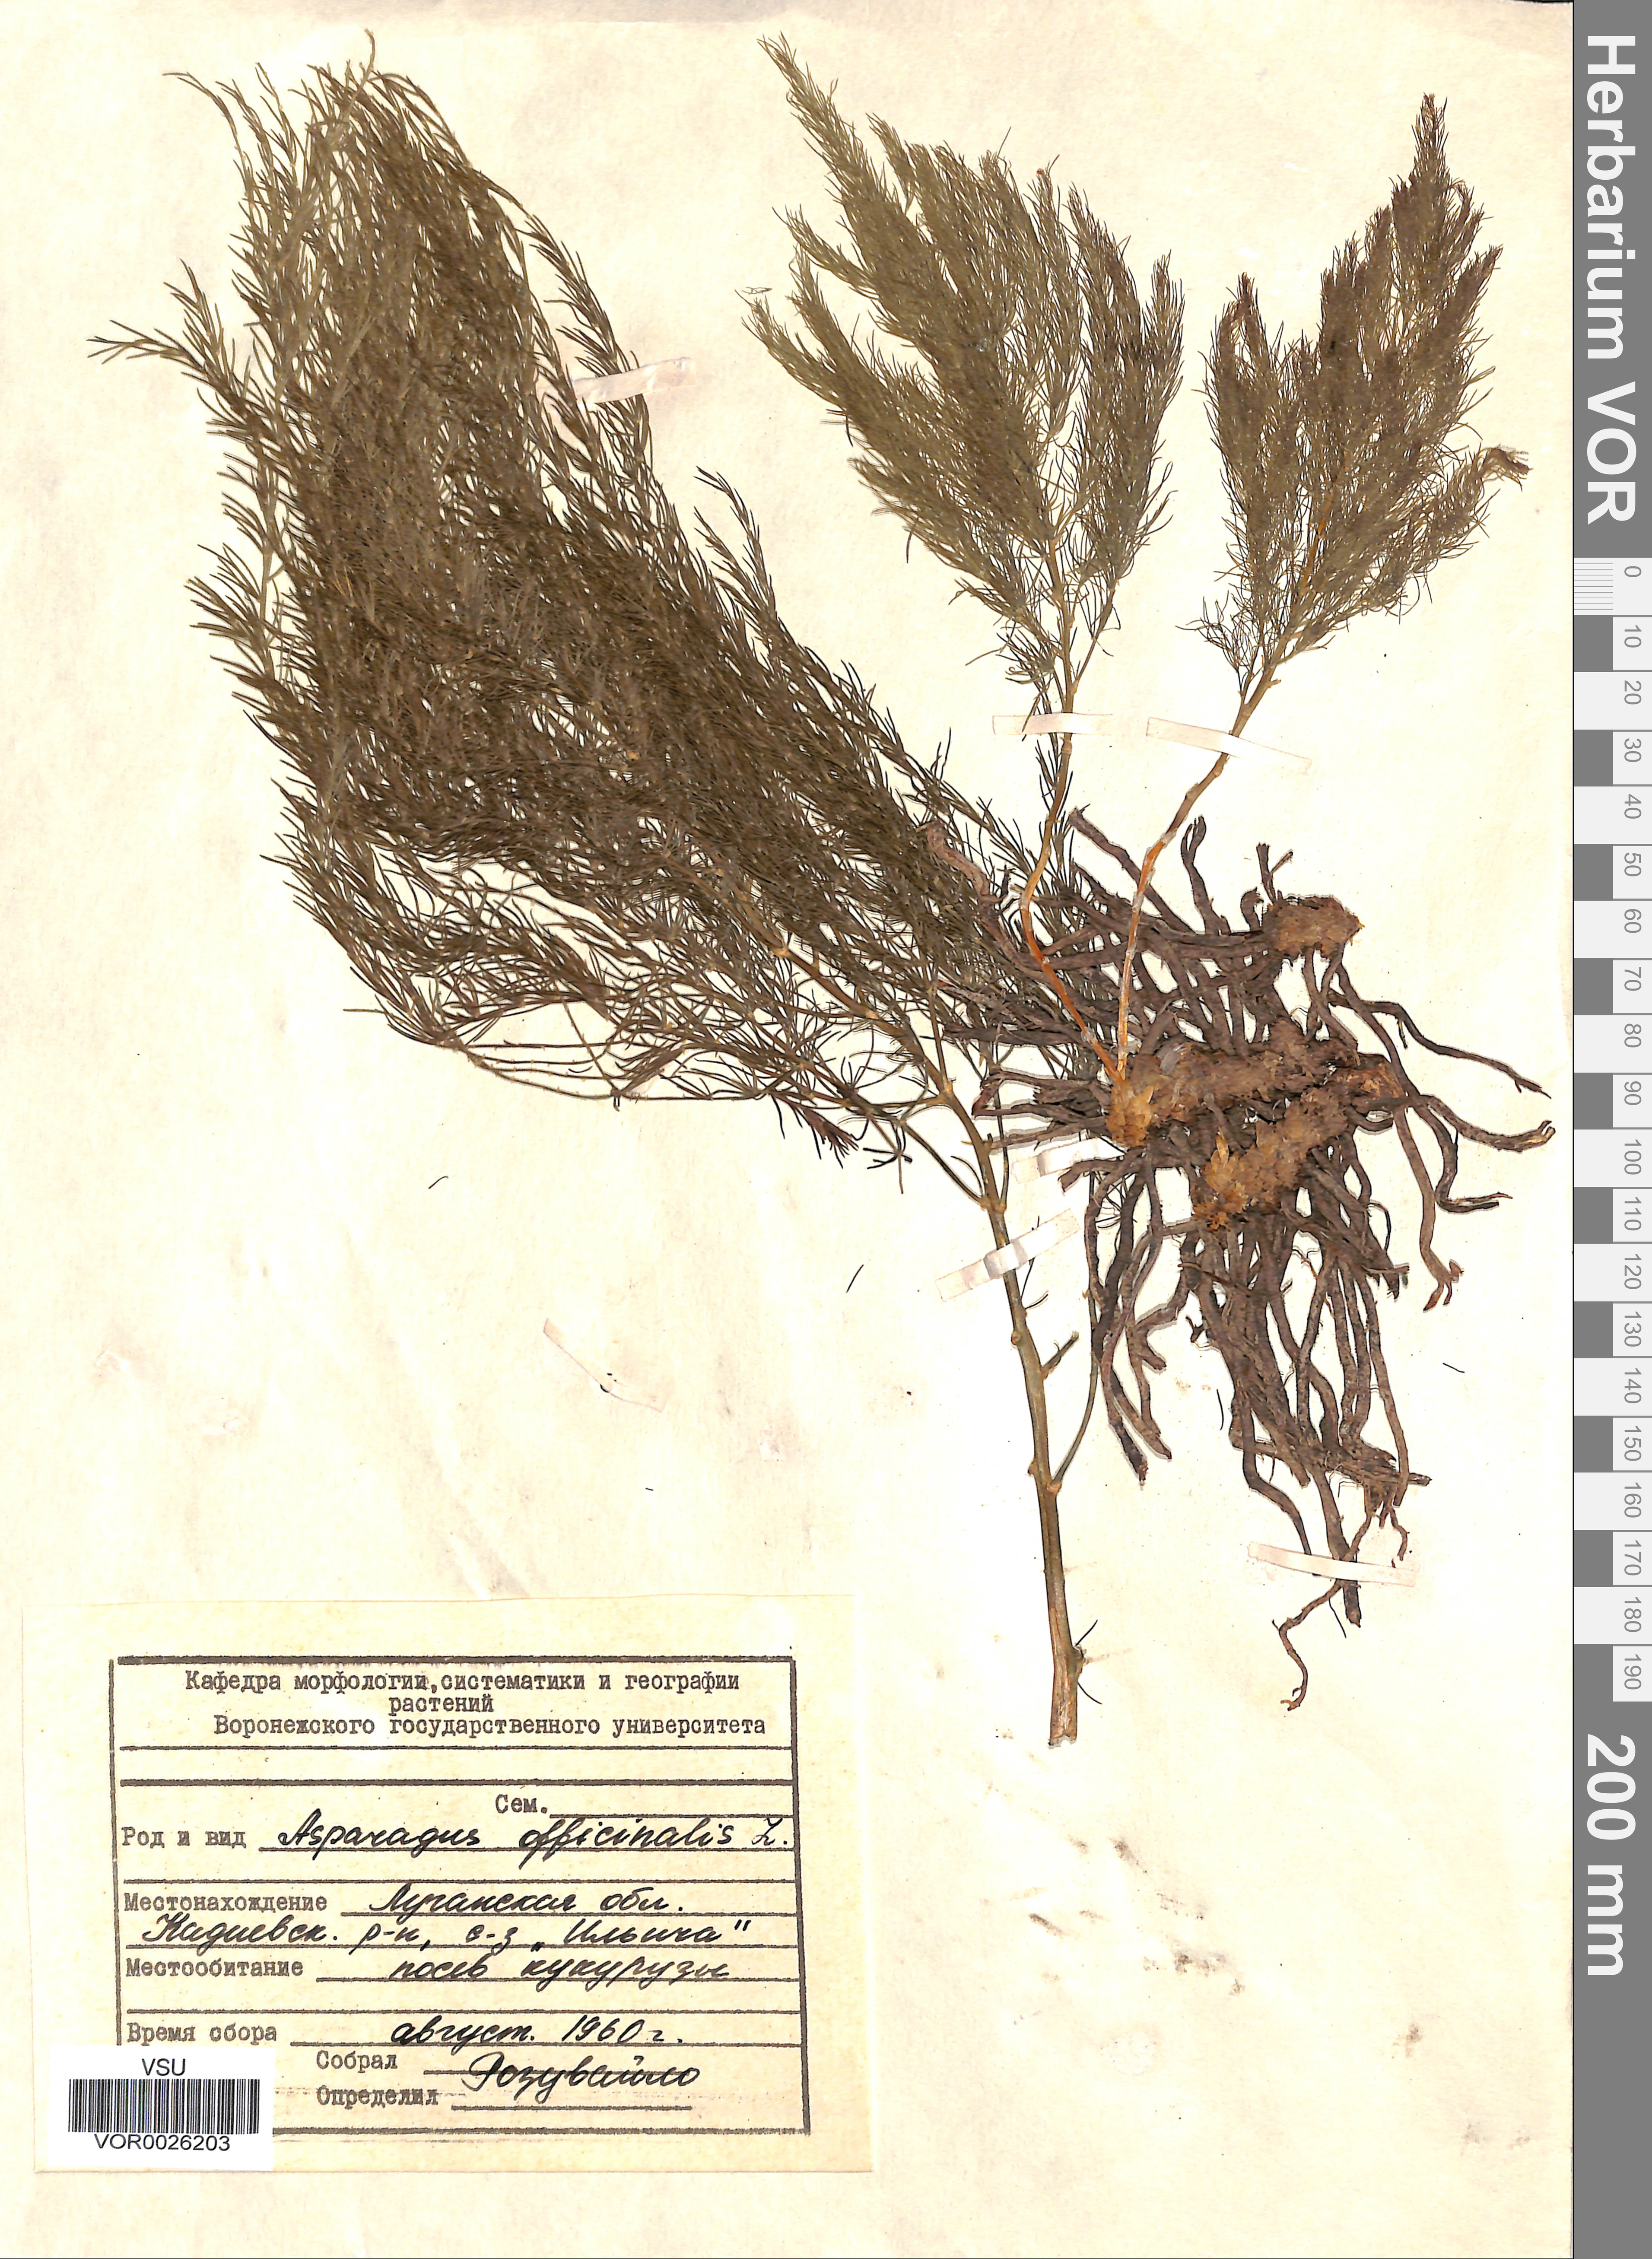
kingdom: Plantae
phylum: Tracheophyta
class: Liliopsida
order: Asparagales
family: Asparagaceae
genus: Asparagus
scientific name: Asparagus officinalis
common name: Garden asparagus
